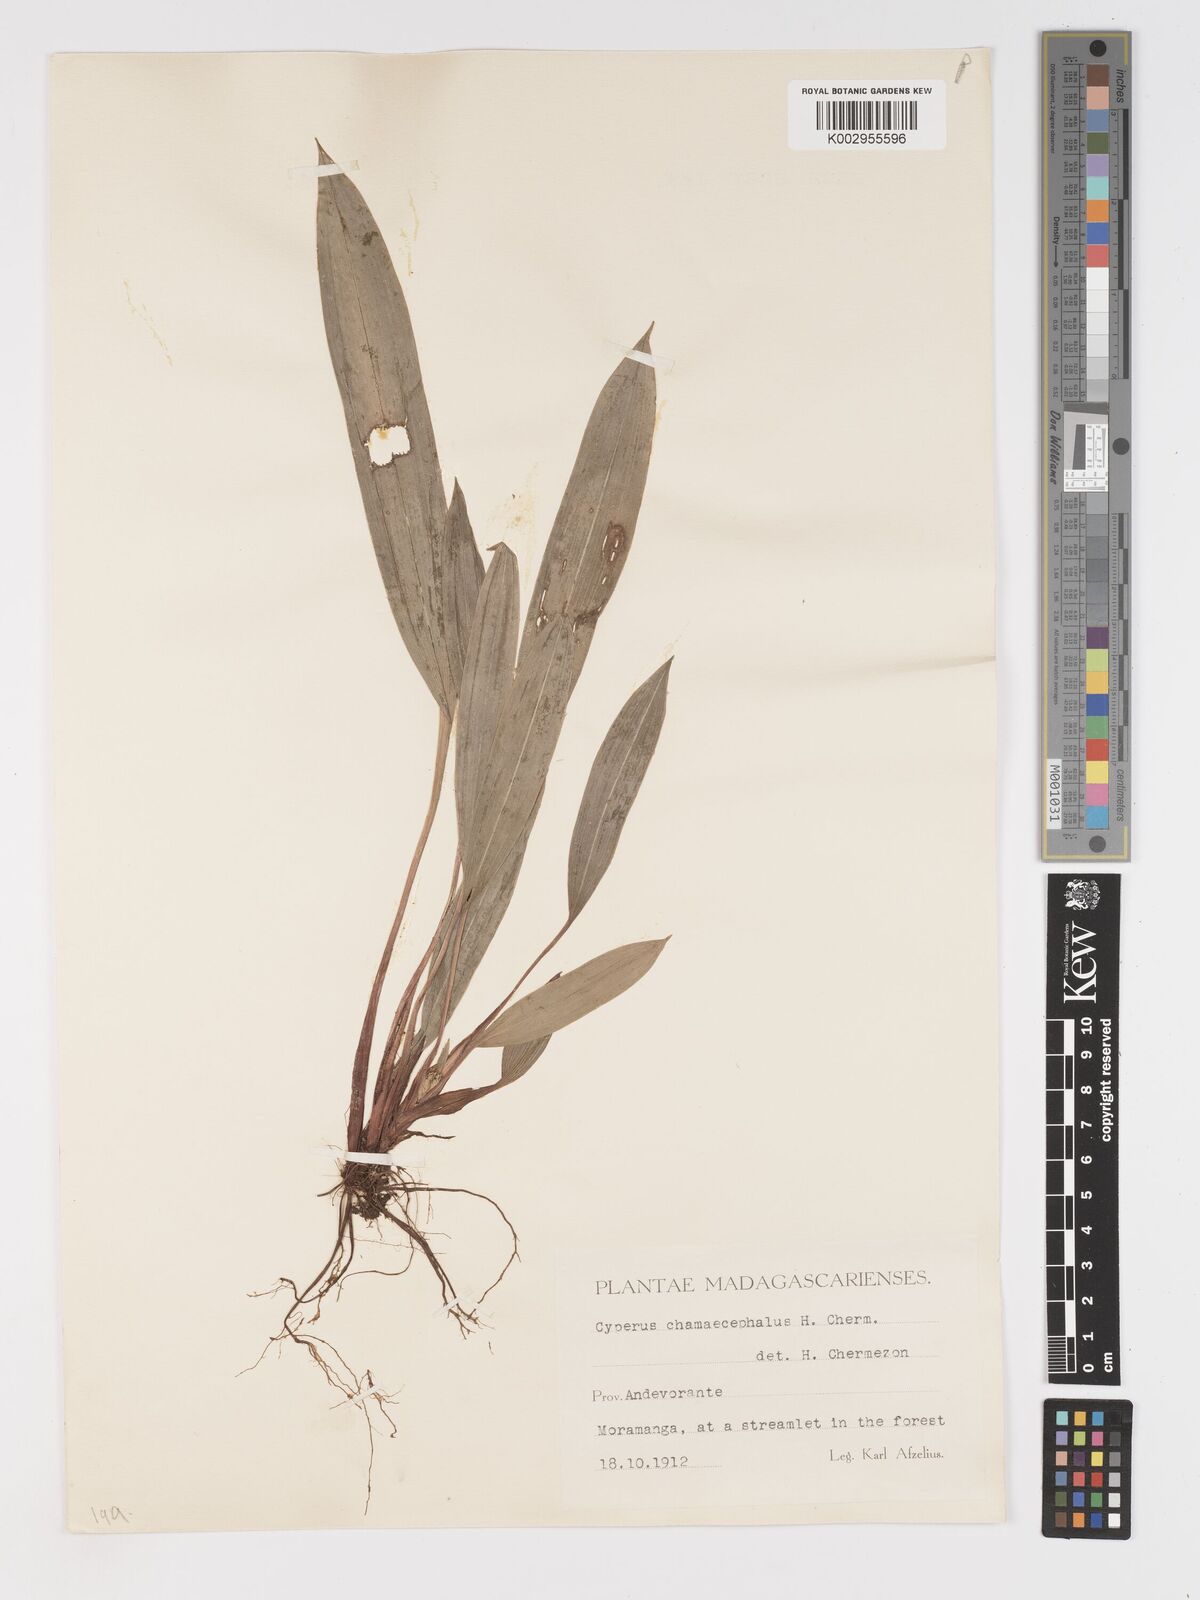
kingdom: Plantae
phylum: Tracheophyta
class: Liliopsida
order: Poales
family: Cyperaceae
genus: Cyperus
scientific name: Cyperus chamaecephalus
